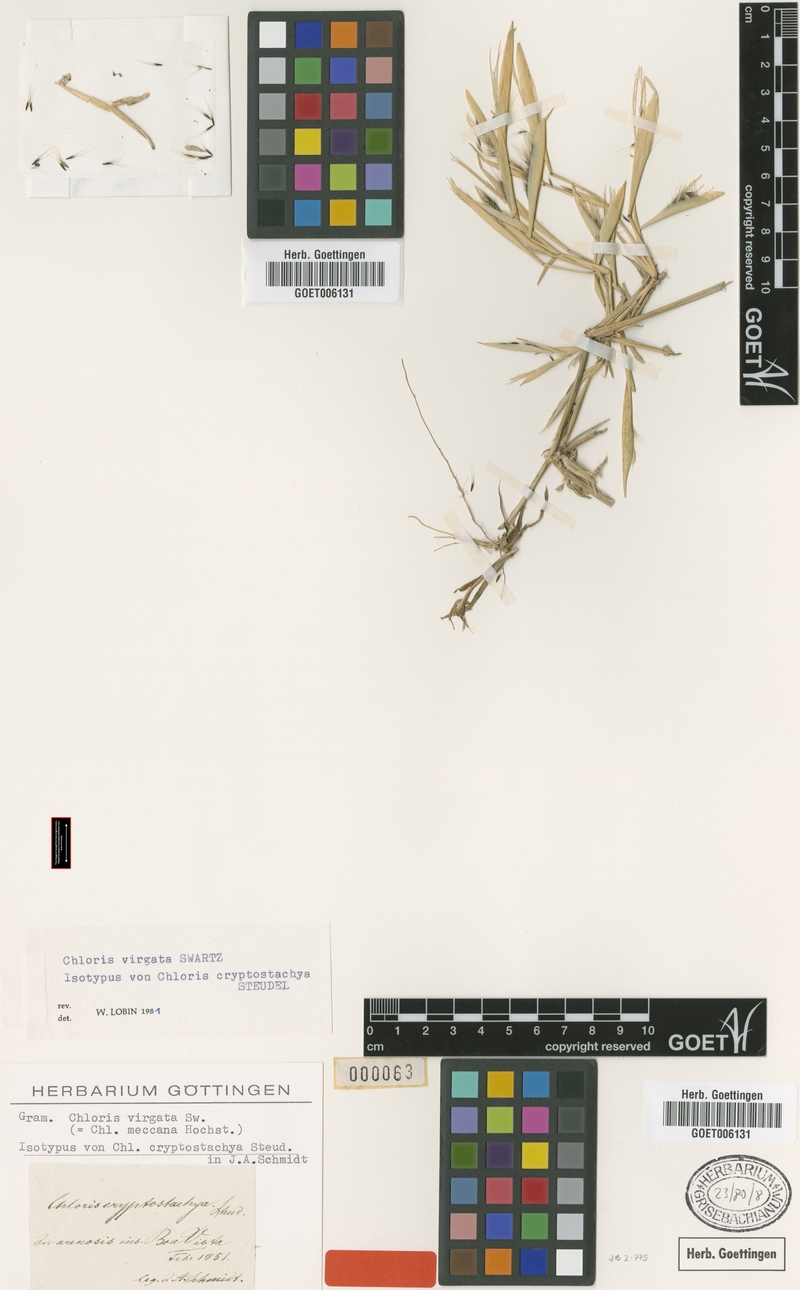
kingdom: Plantae
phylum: Tracheophyta
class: Liliopsida
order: Poales
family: Poaceae
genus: Chloris
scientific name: Chloris virgata
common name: Feathery rhodes-grass
